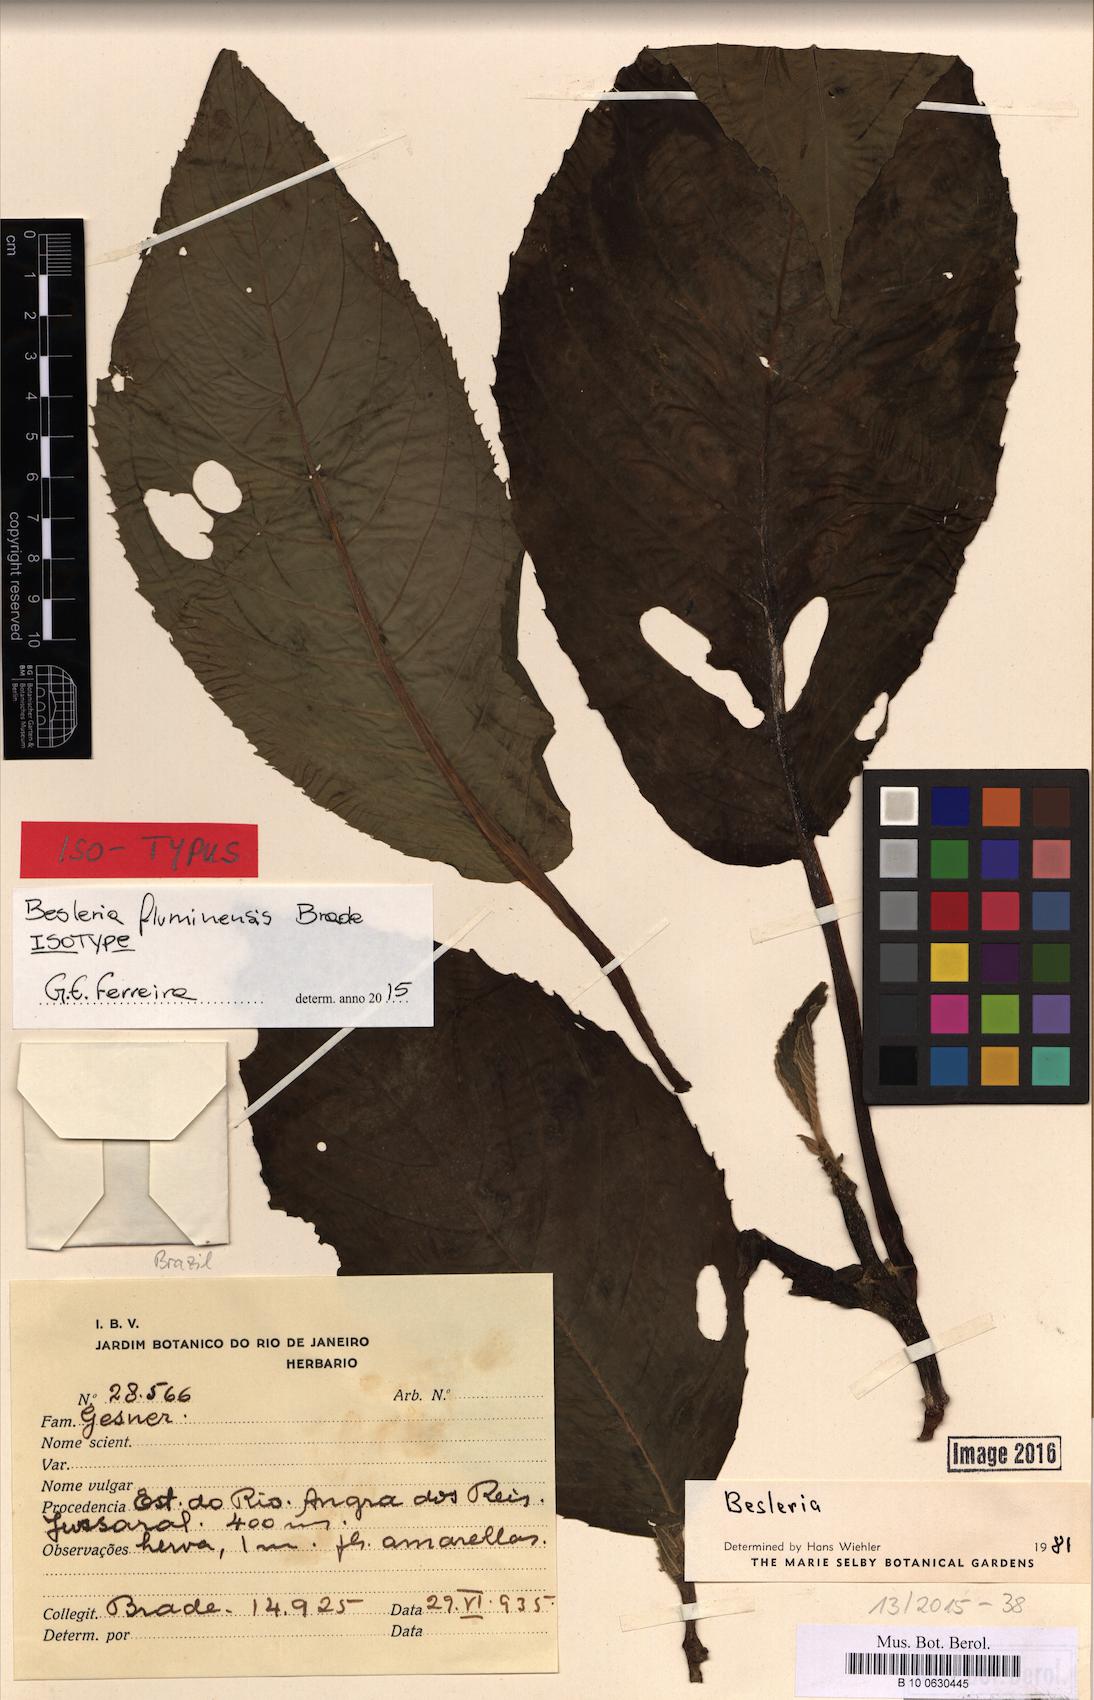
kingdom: Plantae
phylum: Tracheophyta
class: Magnoliopsida
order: Lamiales
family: Gesneriaceae
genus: Besleria
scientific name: Besleria fluminensis
